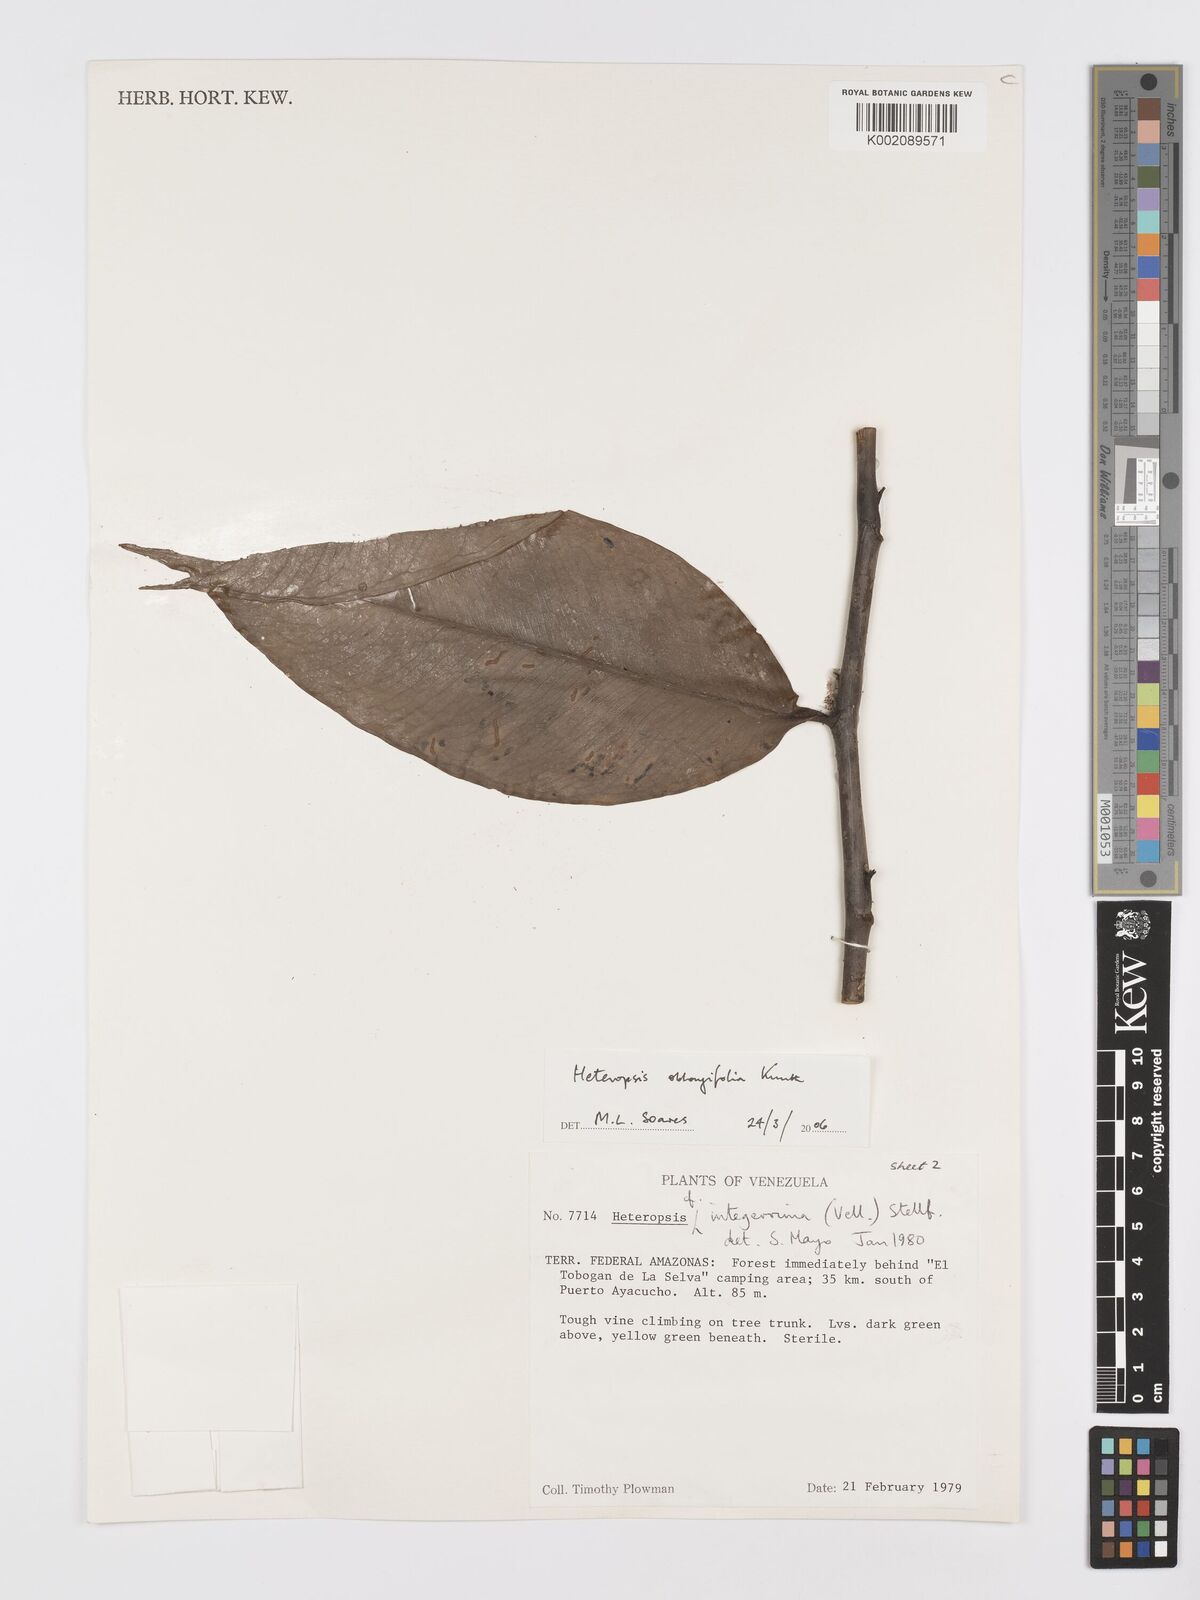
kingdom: Plantae
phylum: Tracheophyta
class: Liliopsida
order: Alismatales
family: Araceae
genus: Heteropsis
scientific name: Heteropsis oblongifolia
